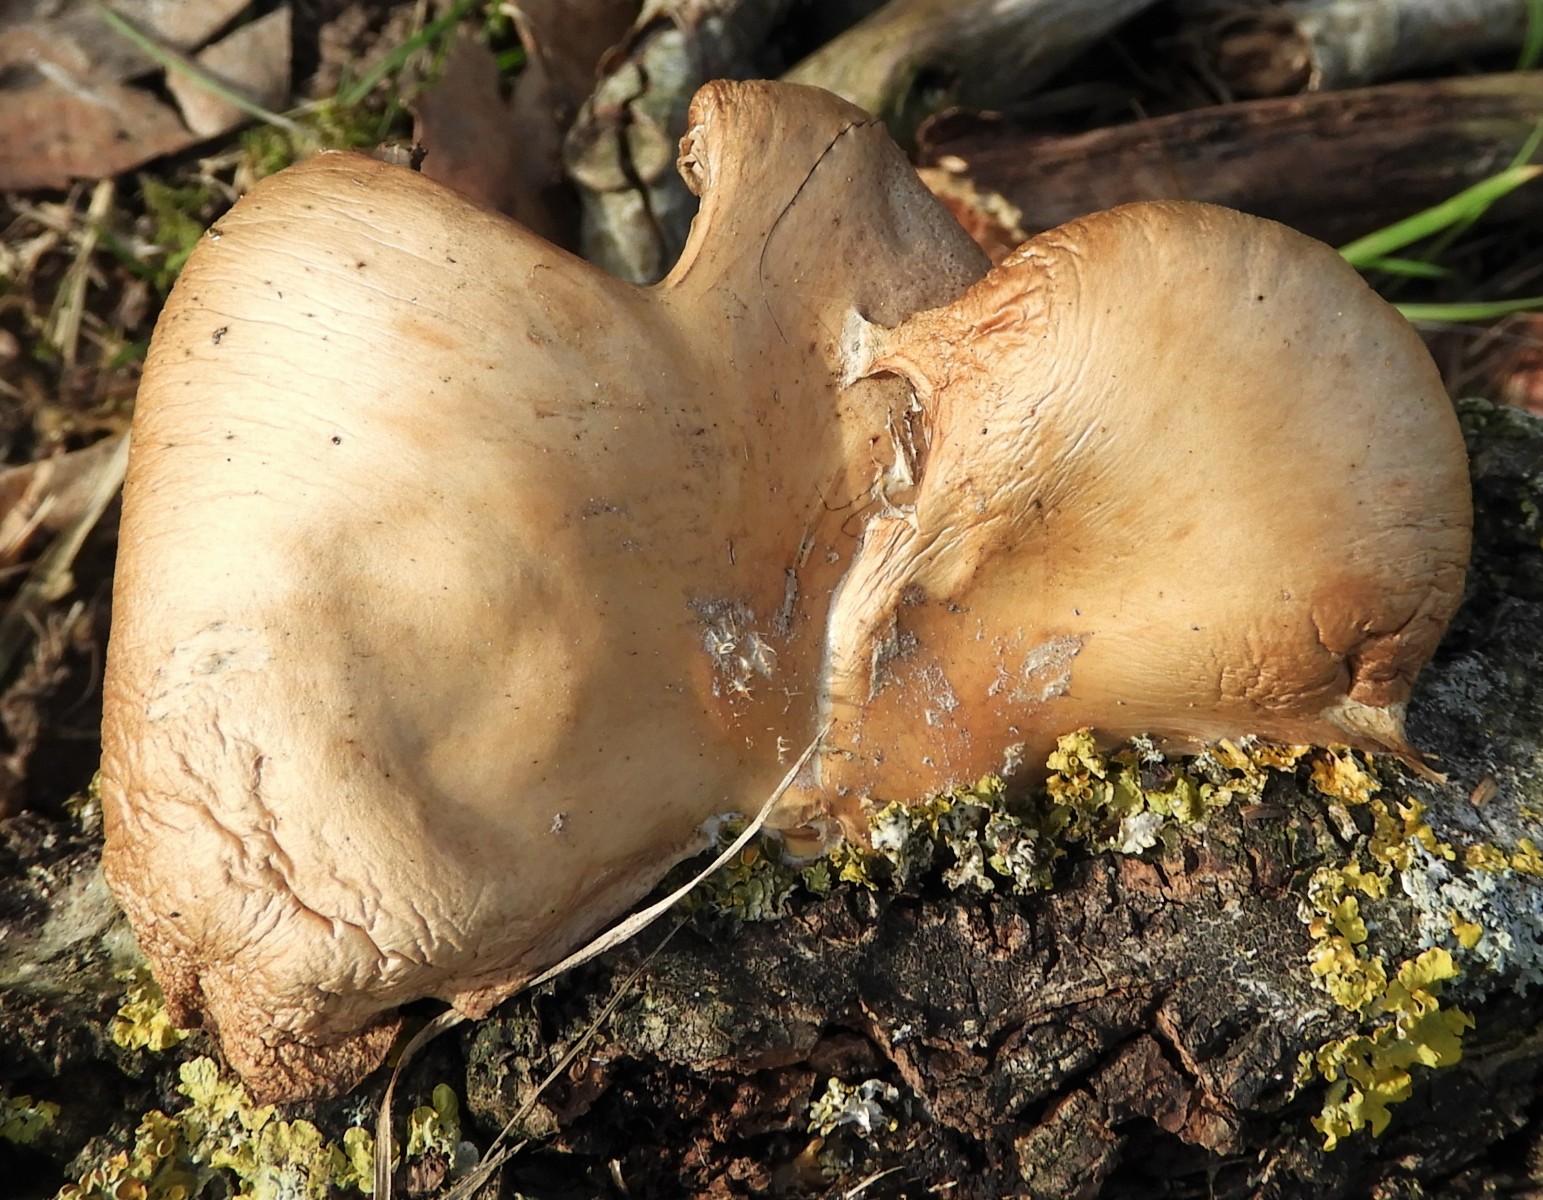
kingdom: Fungi
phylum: Basidiomycota
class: Agaricomycetes
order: Agaricales
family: Pleurotaceae
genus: Pleurotus
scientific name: Pleurotus ostreatus
